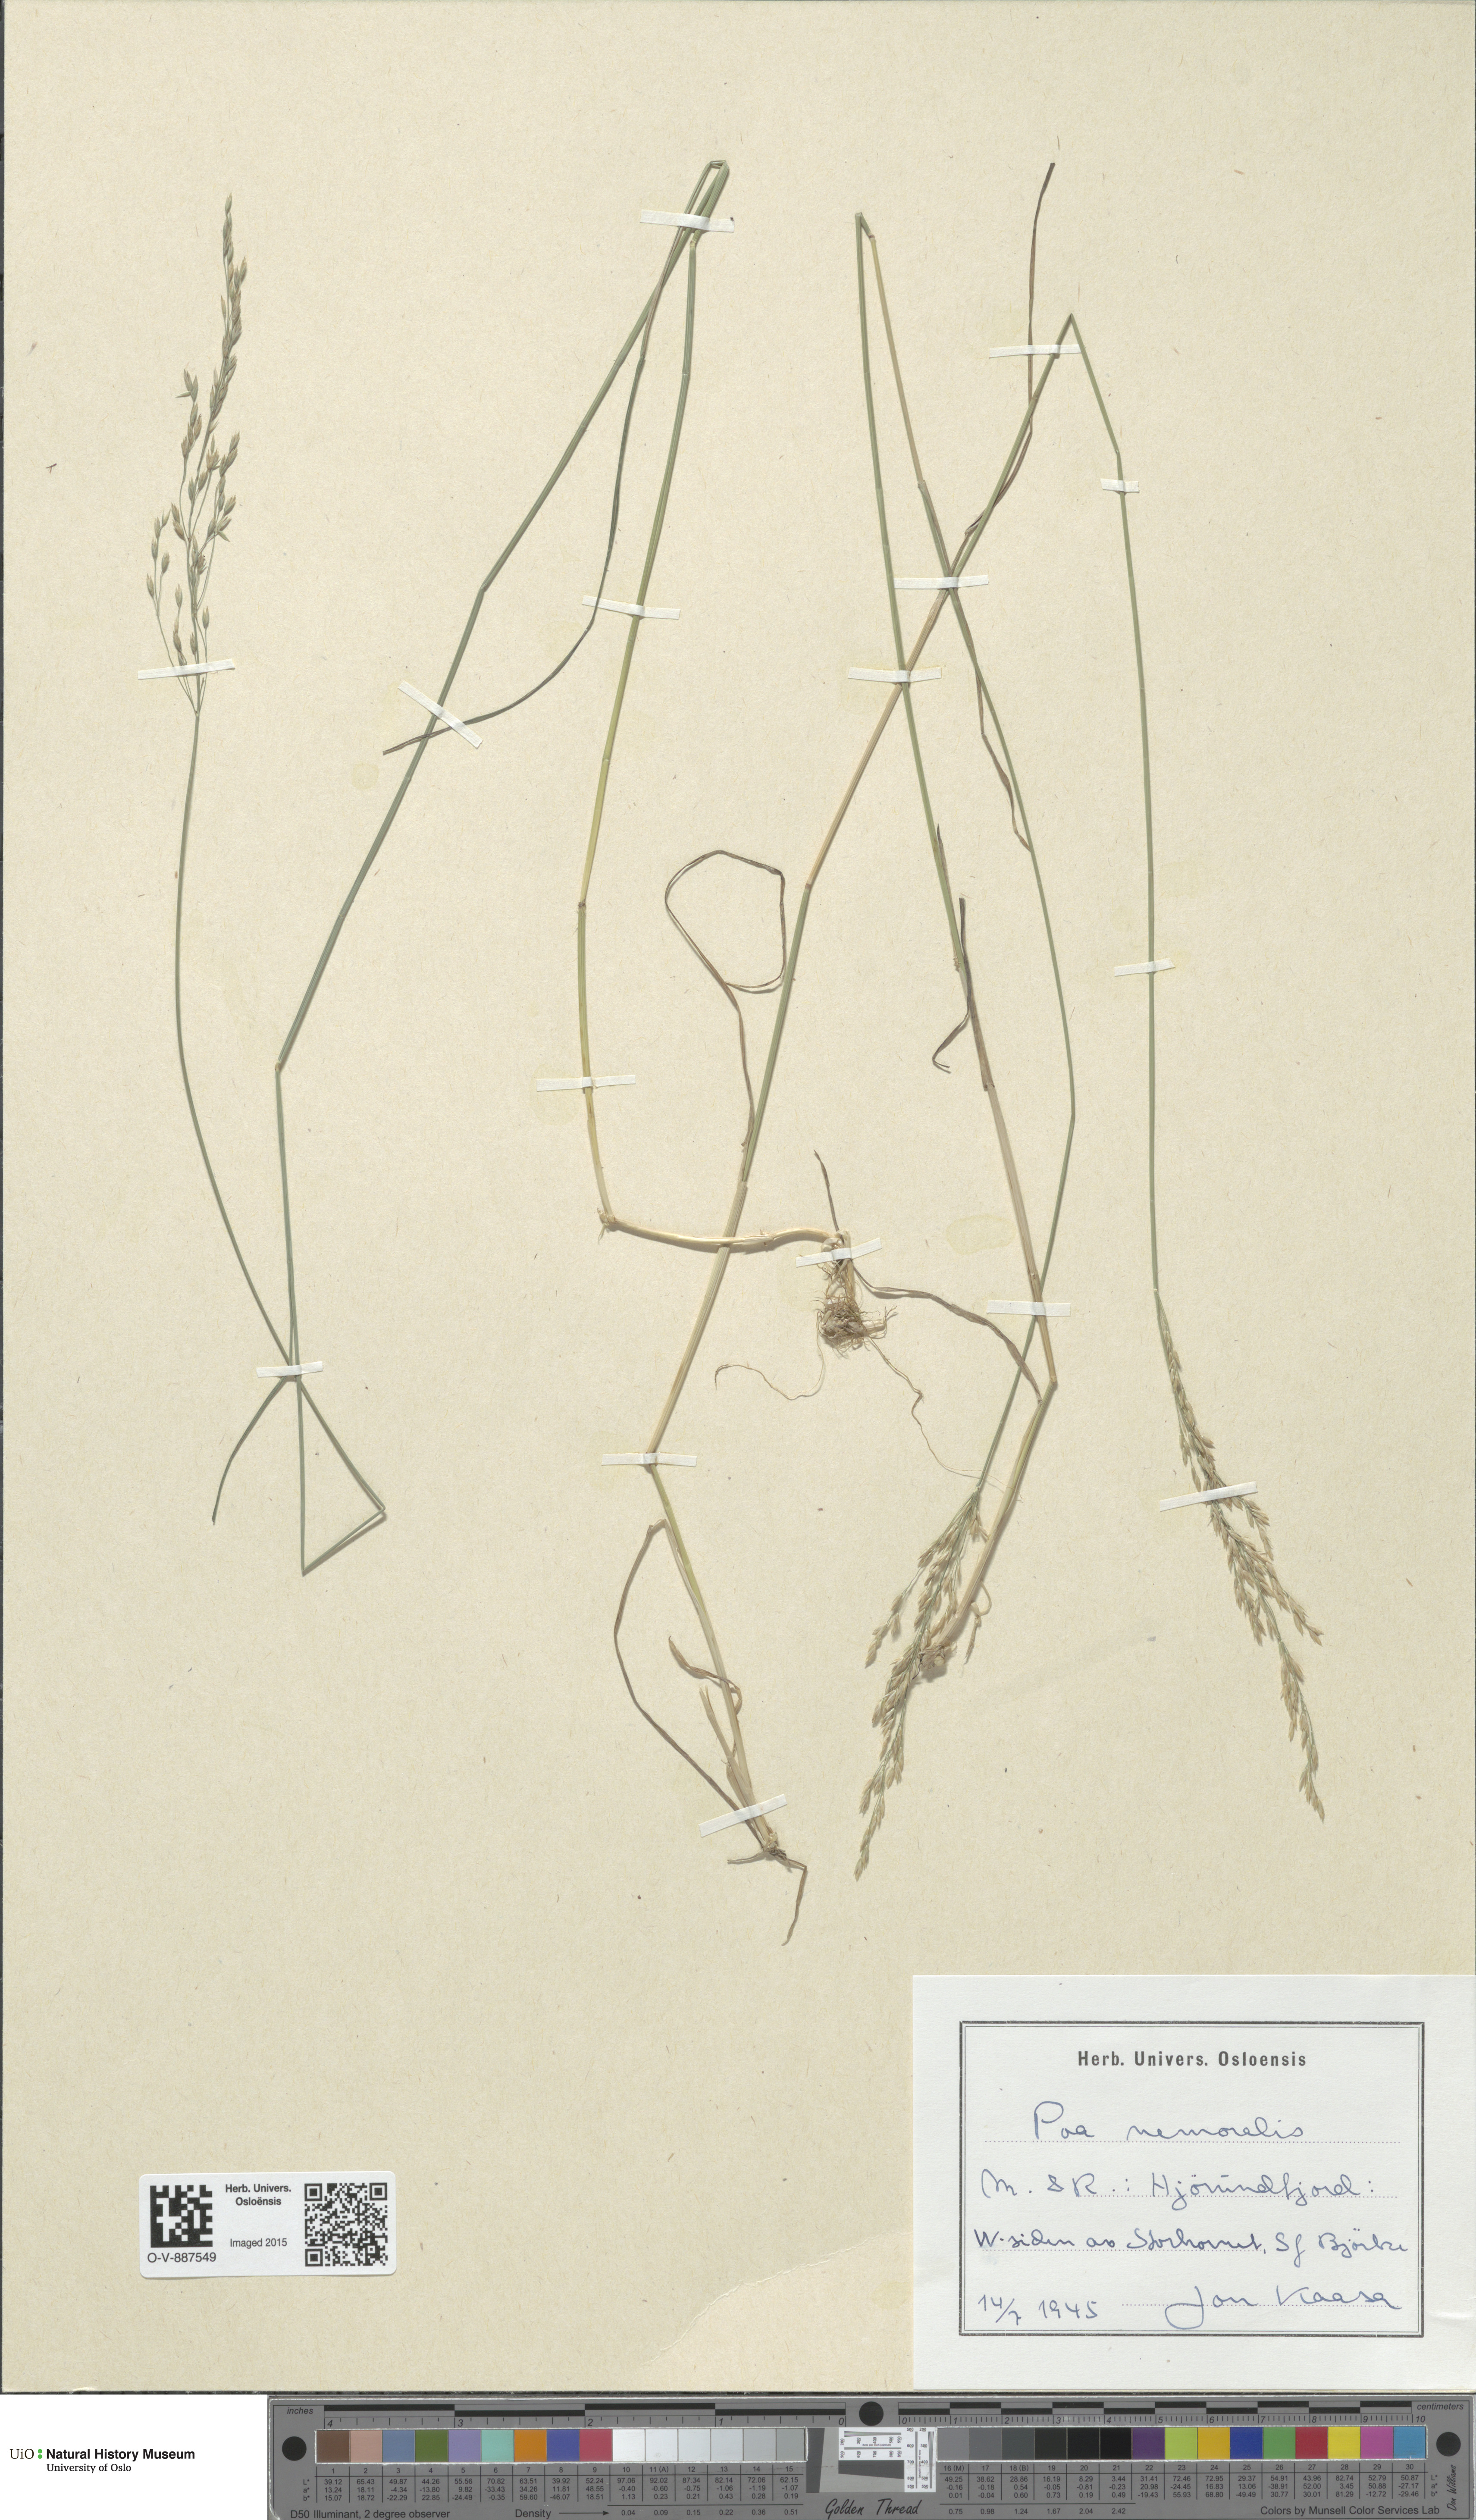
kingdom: Plantae
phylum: Tracheophyta
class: Liliopsida
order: Poales
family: Poaceae
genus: Poa
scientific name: Poa nemoralis
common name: Wood bluegrass
